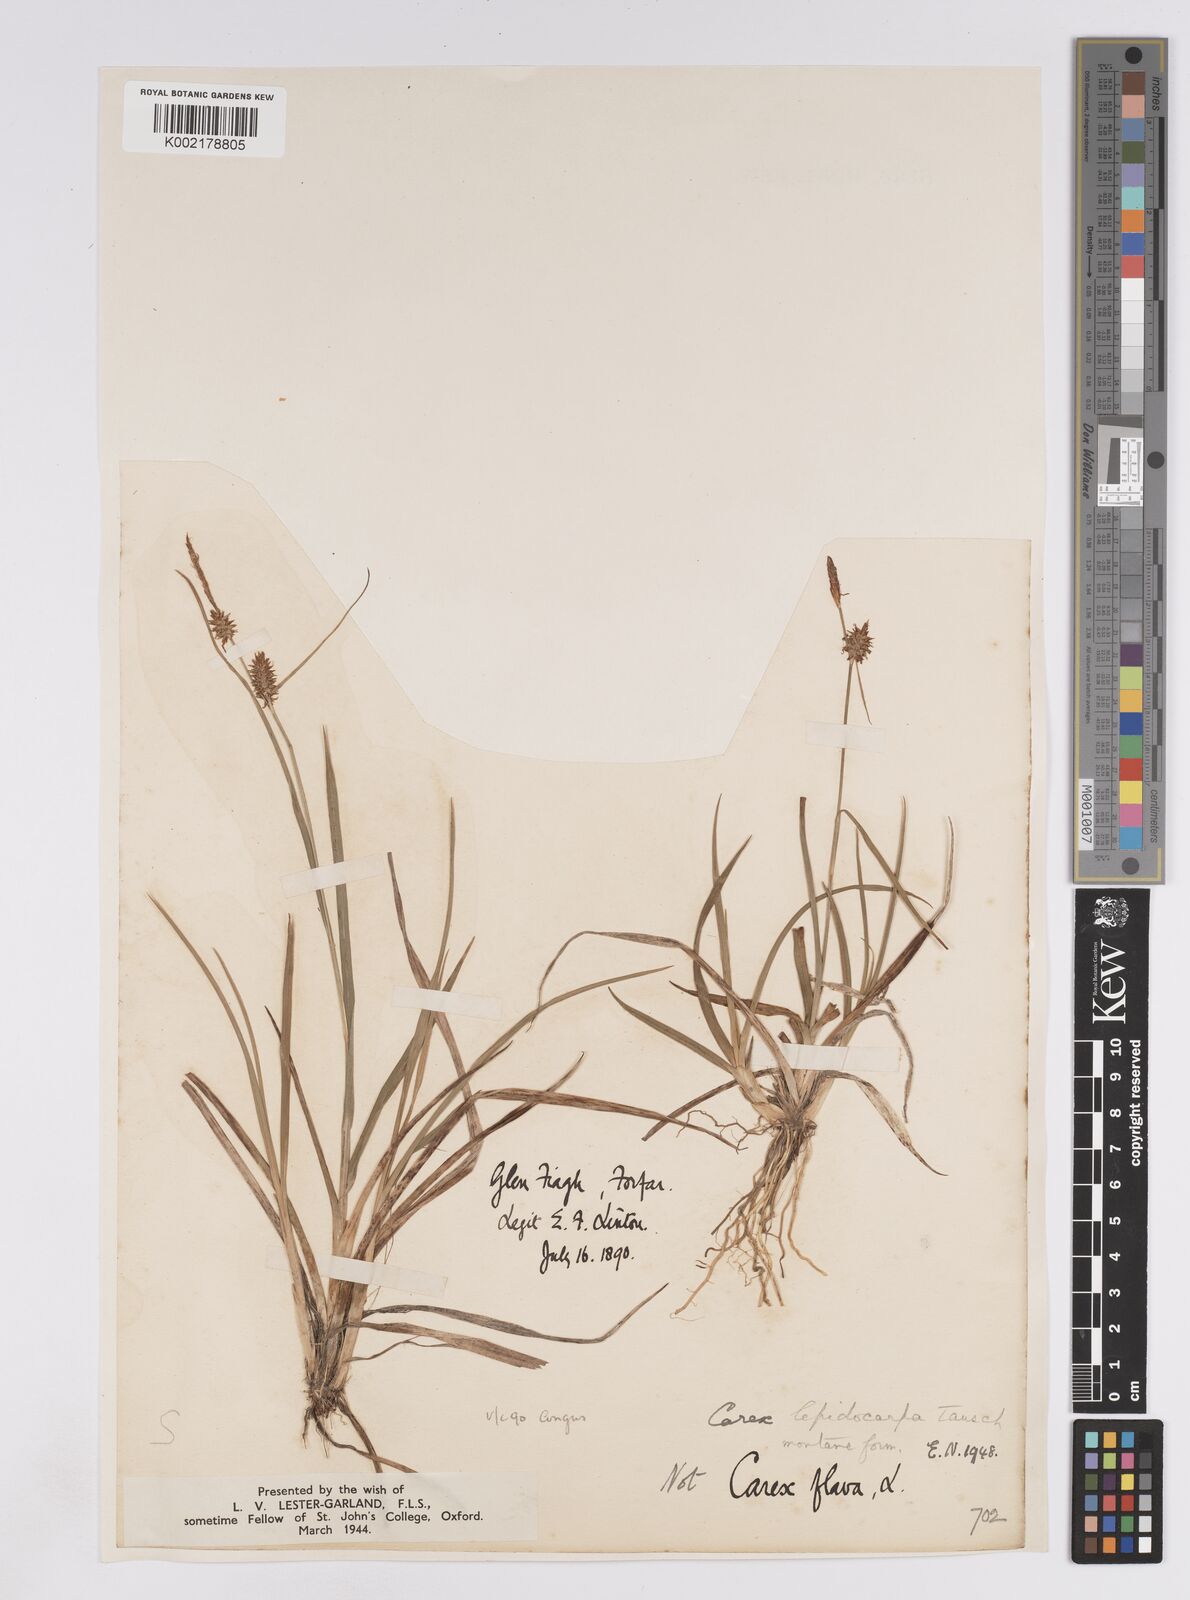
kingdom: Plantae
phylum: Tracheophyta
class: Liliopsida
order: Poales
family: Cyperaceae
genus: Carex
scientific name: Carex lepidocarpa
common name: Long-stalked yellow-sedge
